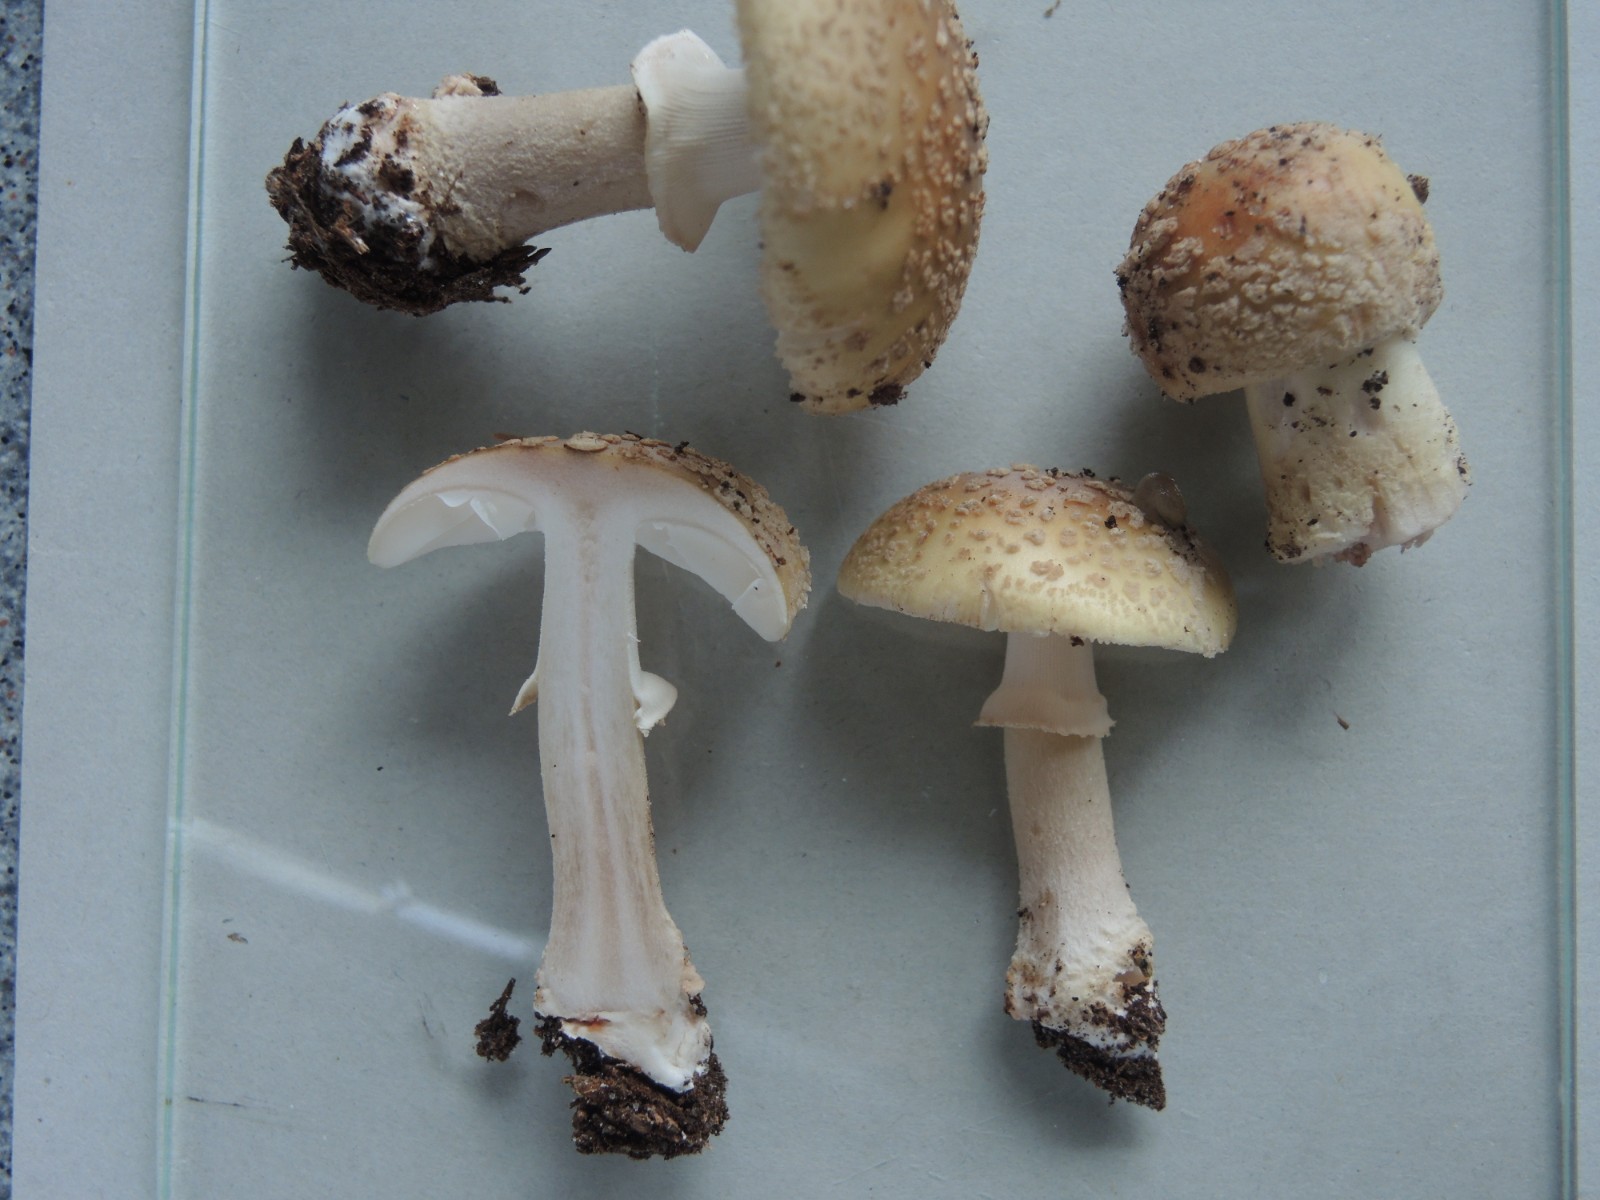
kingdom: Fungi
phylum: Basidiomycota
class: Agaricomycetes
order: Agaricales
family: Amanitaceae
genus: Amanita
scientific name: Amanita rubescens
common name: Blusher
